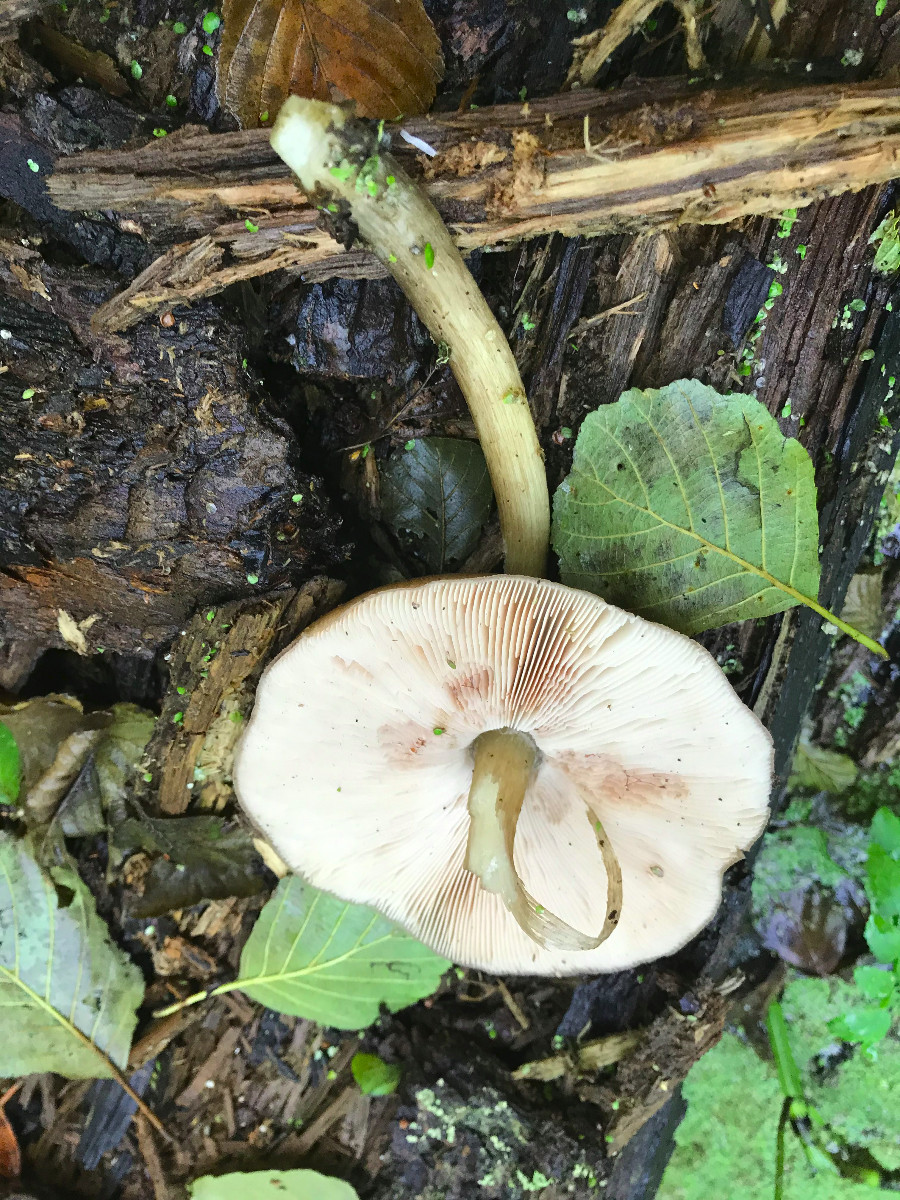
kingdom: Fungi
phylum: Basidiomycota
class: Agaricomycetes
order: Agaricales
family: Pluteaceae
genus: Pluteus
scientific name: Pluteus cervinus
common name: sodfarvet skærmhat
